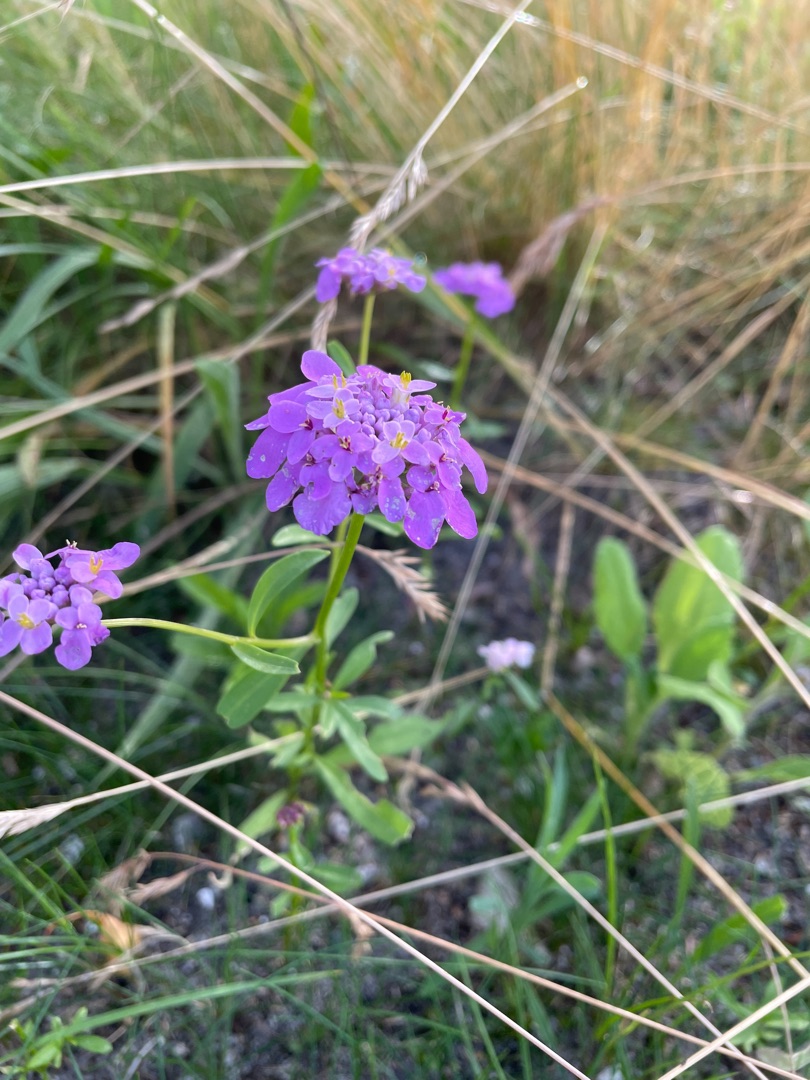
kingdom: Plantae
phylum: Tracheophyta
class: Magnoliopsida
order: Brassicales
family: Brassicaceae
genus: Iberis
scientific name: Iberis umbellata
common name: Skærm-sløjfeblomst
